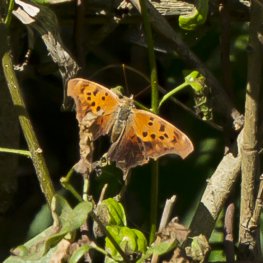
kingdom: Animalia
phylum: Arthropoda
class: Insecta
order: Lepidoptera
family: Nymphalidae
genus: Polygonia
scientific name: Polygonia interrogationis
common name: Question Mark
